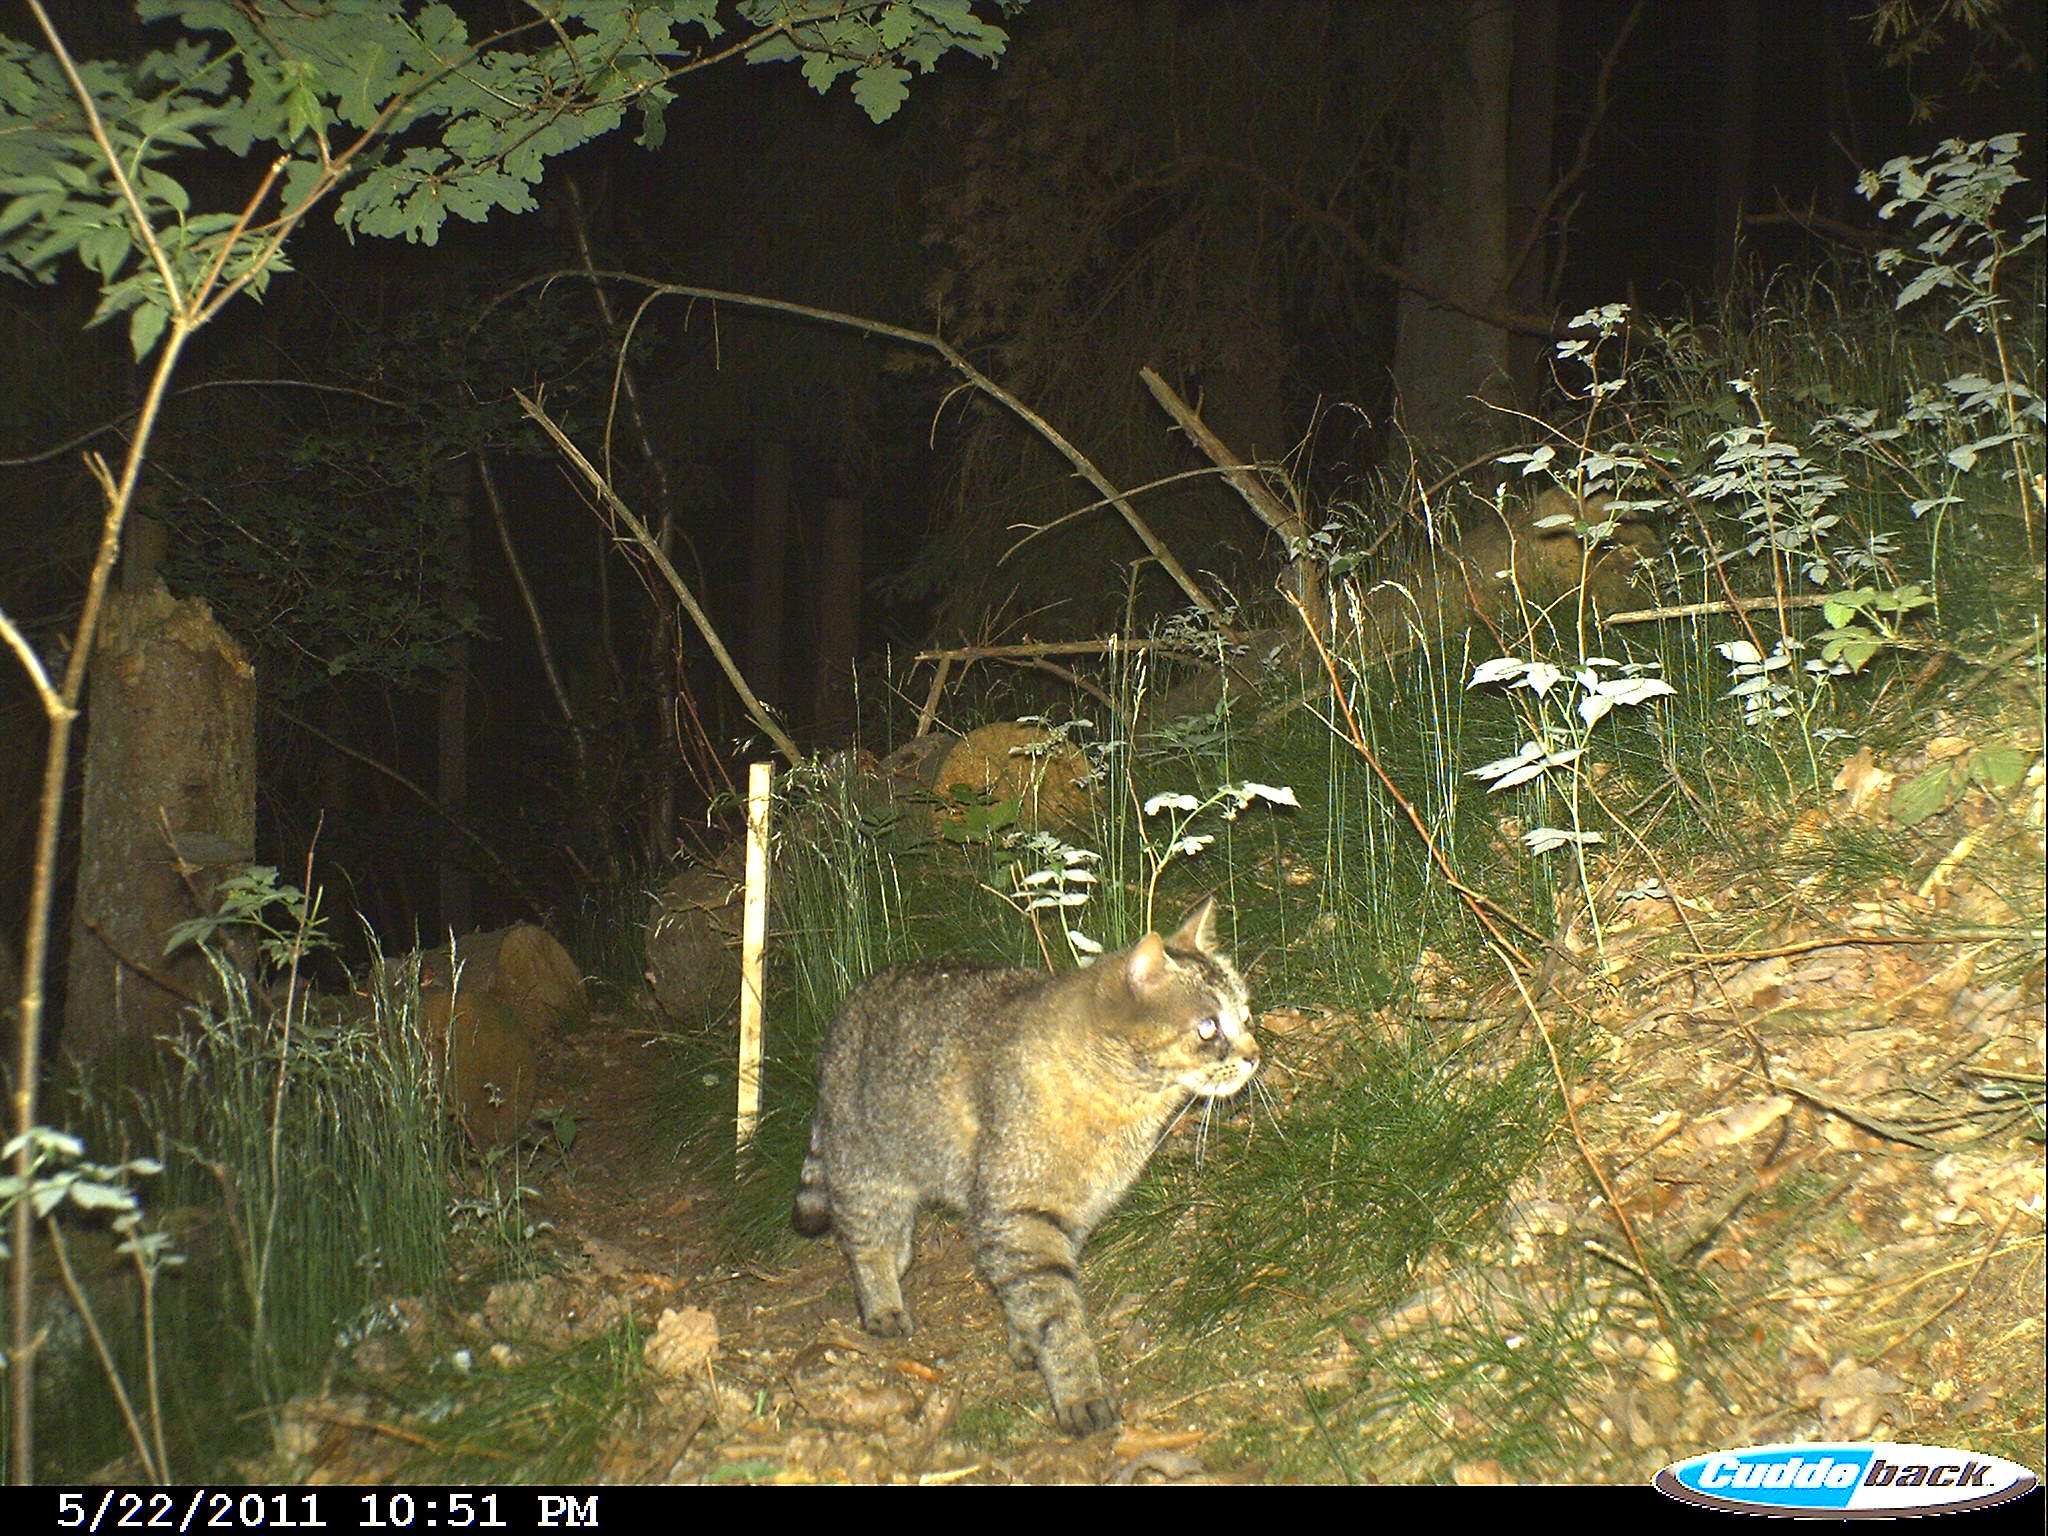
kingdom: Animalia
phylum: Chordata
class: Mammalia
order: Carnivora
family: Felidae
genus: Felis
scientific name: Felis silvestris
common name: Wildcat
